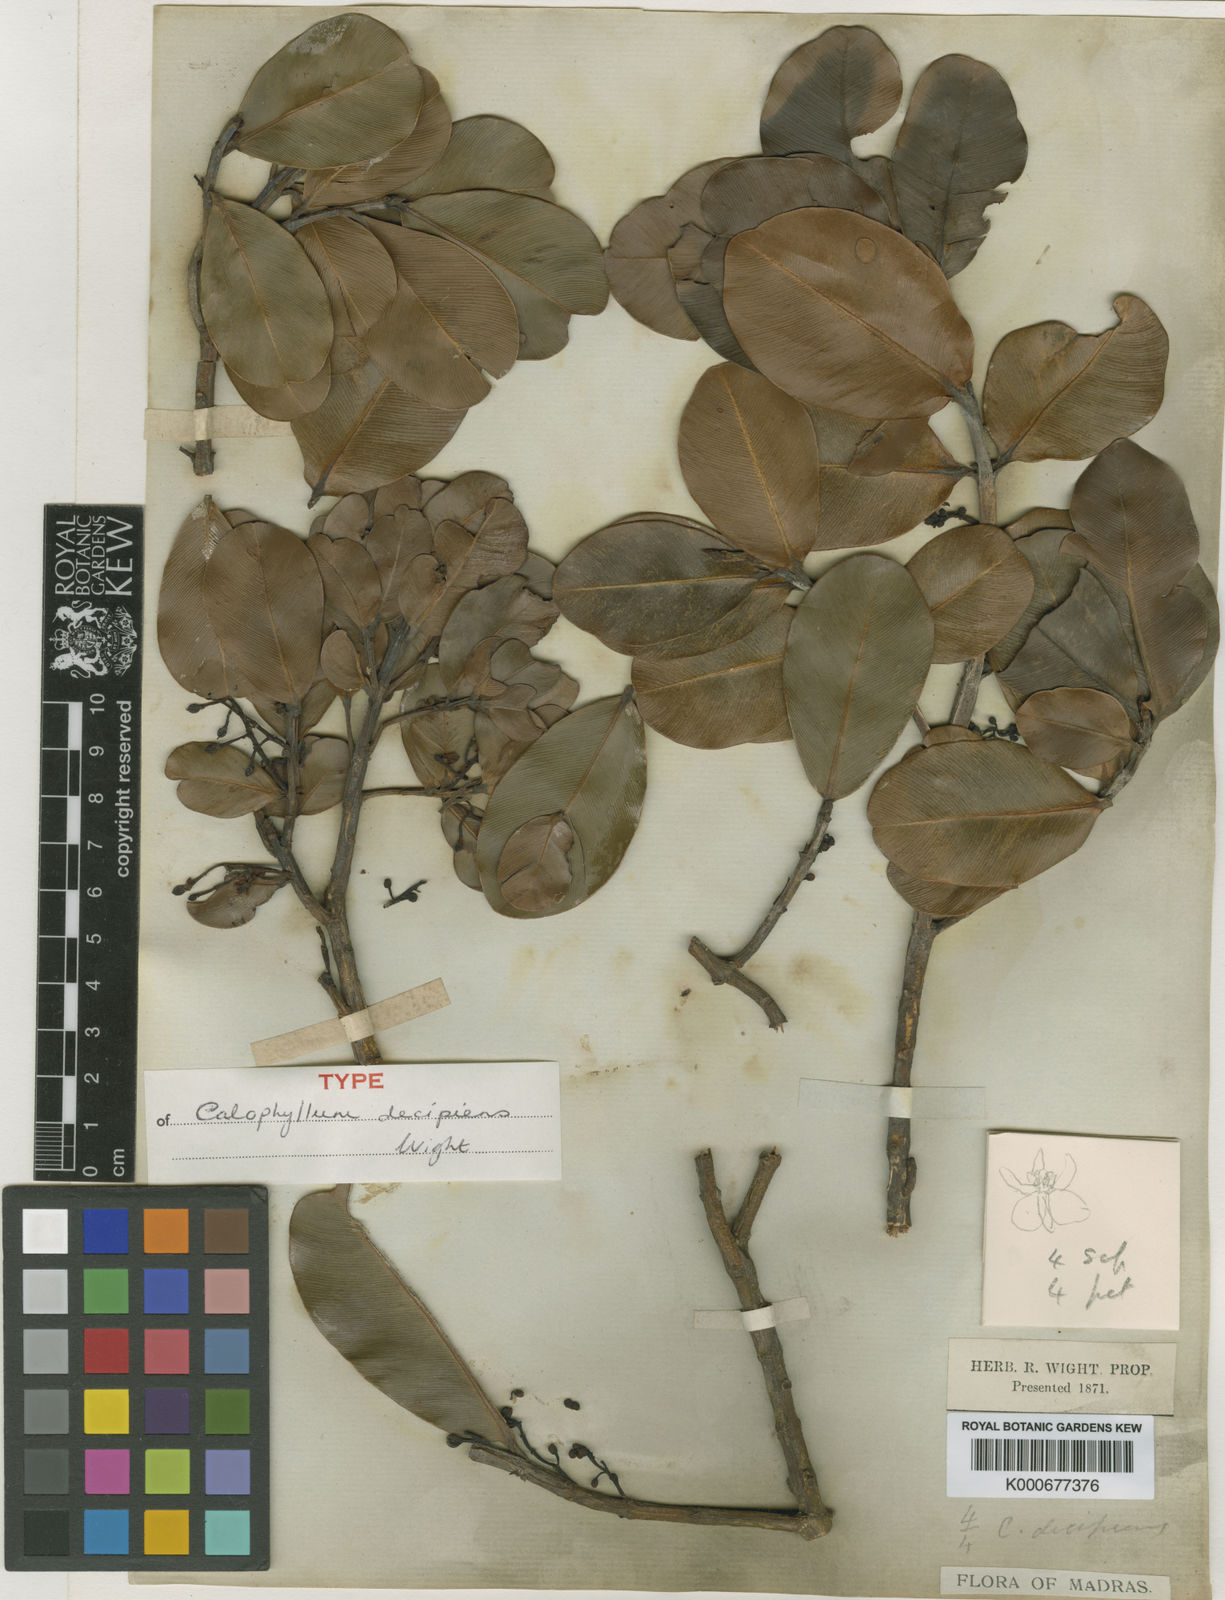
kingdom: Plantae
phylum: Tracheophyta
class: Magnoliopsida
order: Malpighiales
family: Calophyllaceae
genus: Calophyllum
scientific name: Calophyllum apetalum
